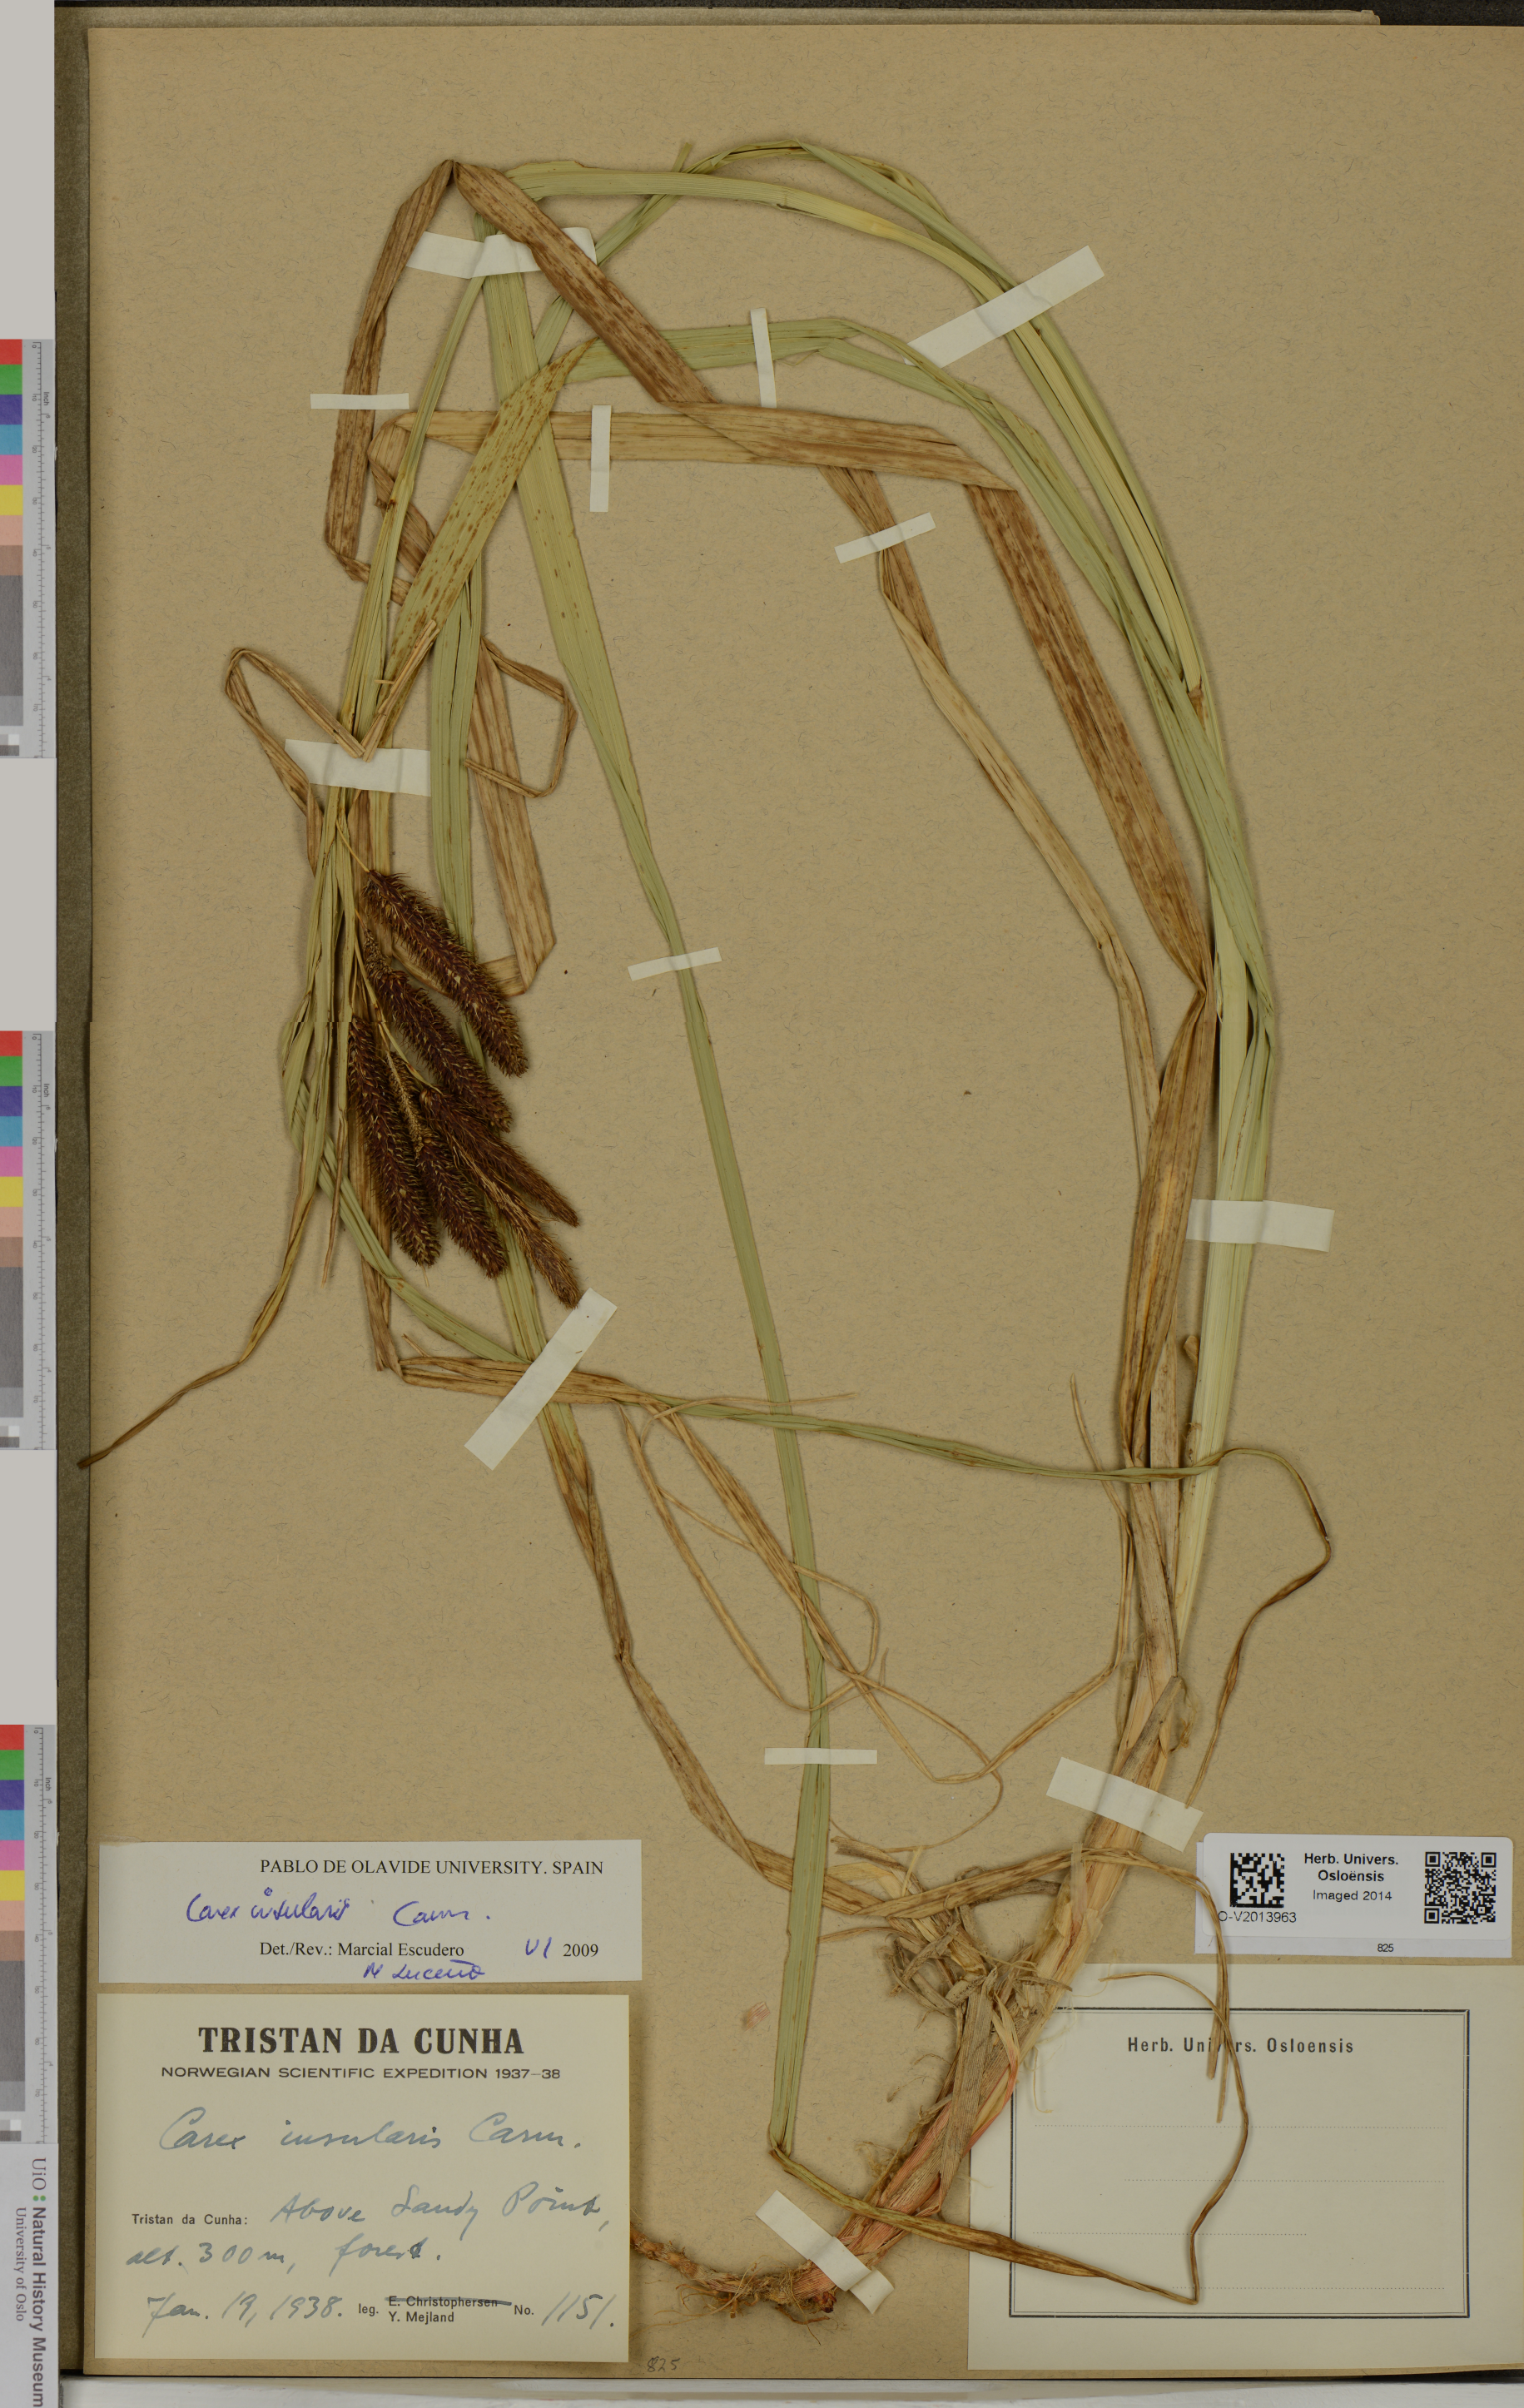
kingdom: Plantae
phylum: Tracheophyta
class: Liliopsida
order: Poales
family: Cyperaceae
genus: Carex
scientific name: Carex insularis
